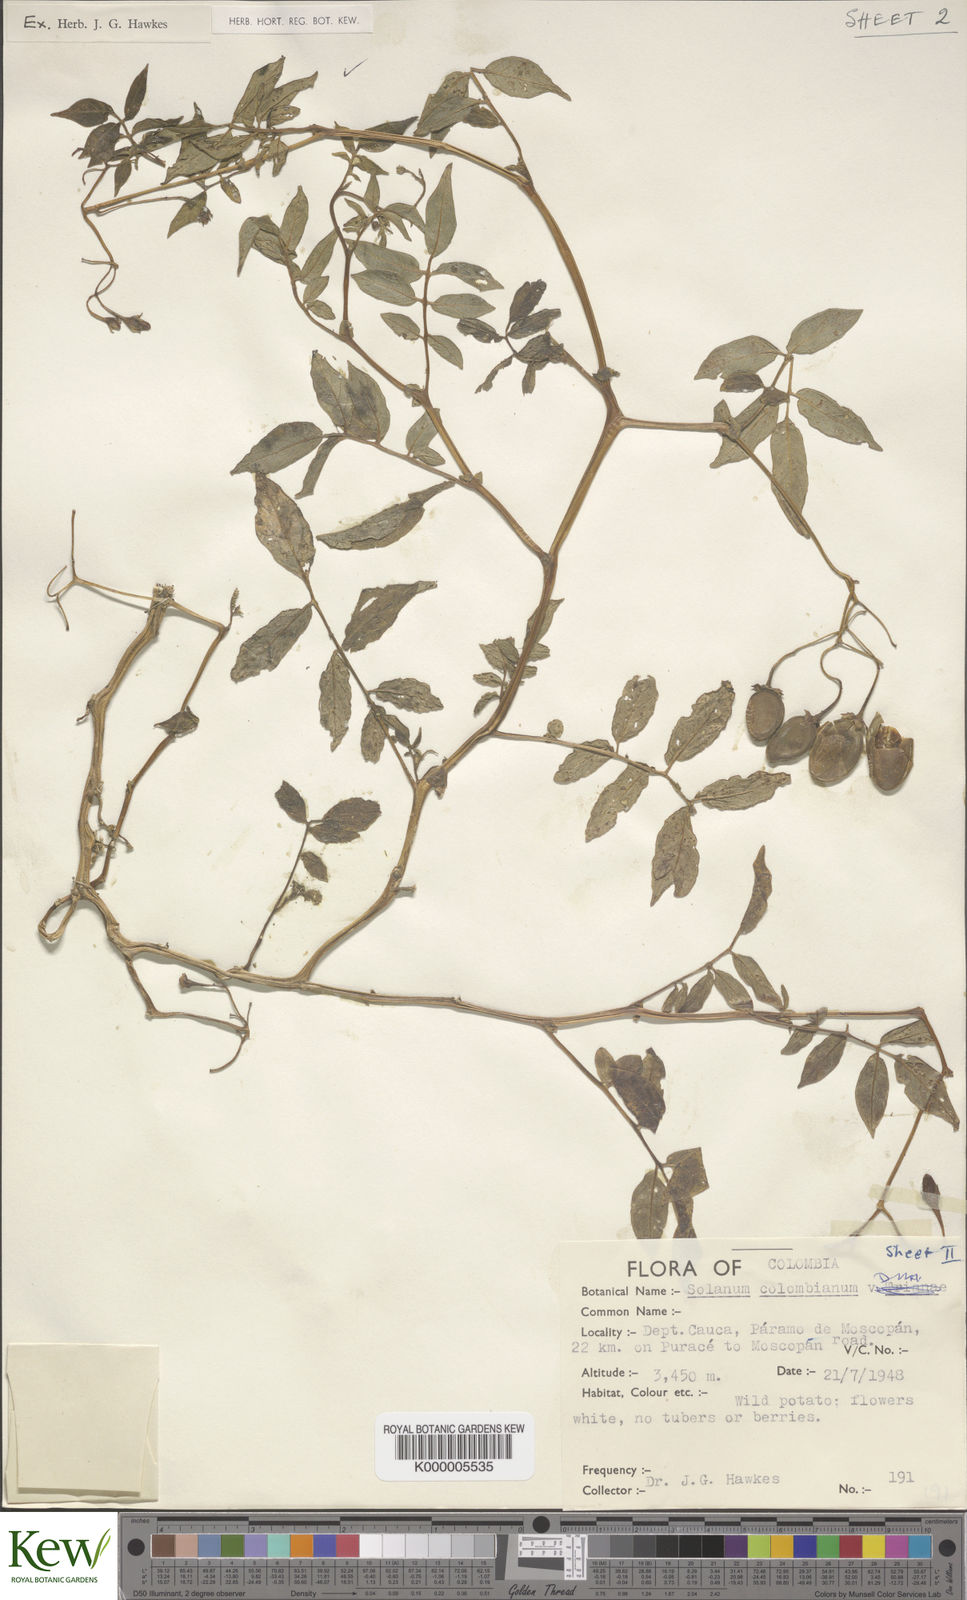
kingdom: Plantae
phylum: Tracheophyta
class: Magnoliopsida
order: Solanales
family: Solanaceae
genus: Solanum
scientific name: Solanum colombianum
